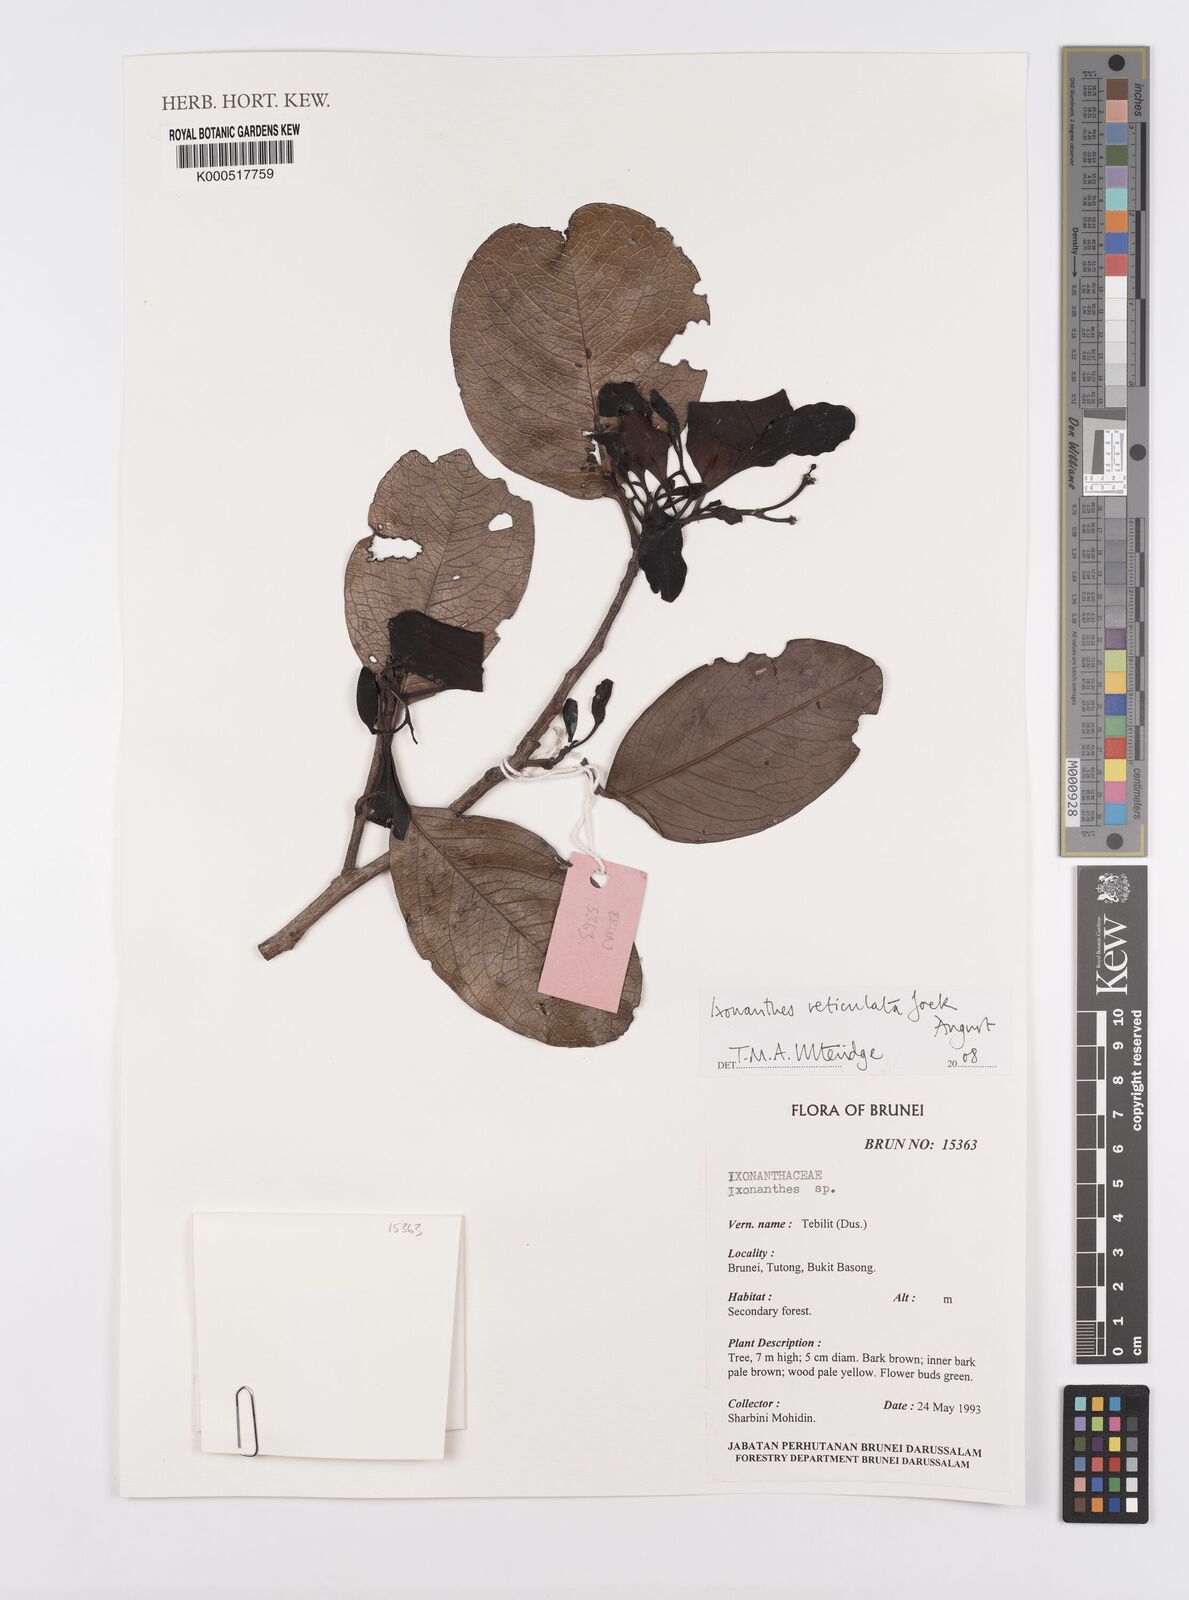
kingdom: Plantae
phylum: Tracheophyta
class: Magnoliopsida
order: Malpighiales
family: Ixonanthaceae
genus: Ixonanthes
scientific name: Ixonanthes reticulata
